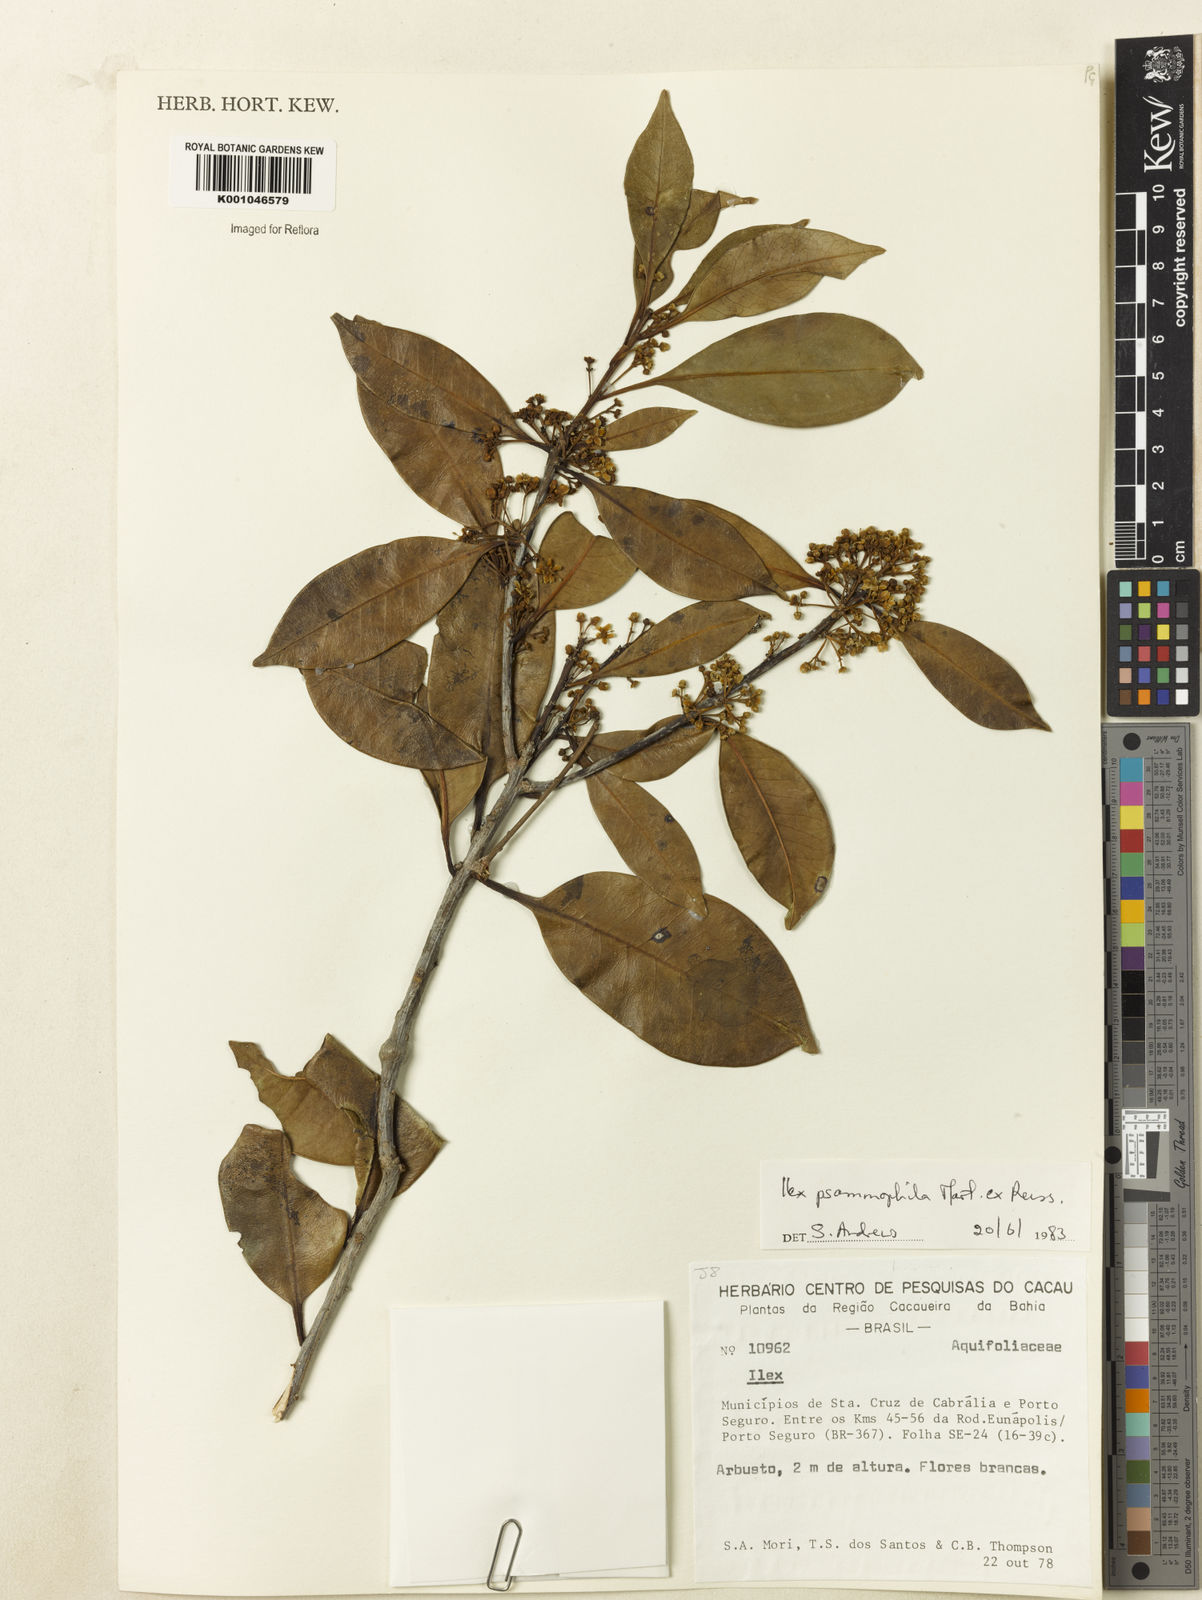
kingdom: Plantae
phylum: Tracheophyta
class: Magnoliopsida
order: Aquifoliales
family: Aquifoliaceae
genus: Ilex
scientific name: Ilex psammophila
